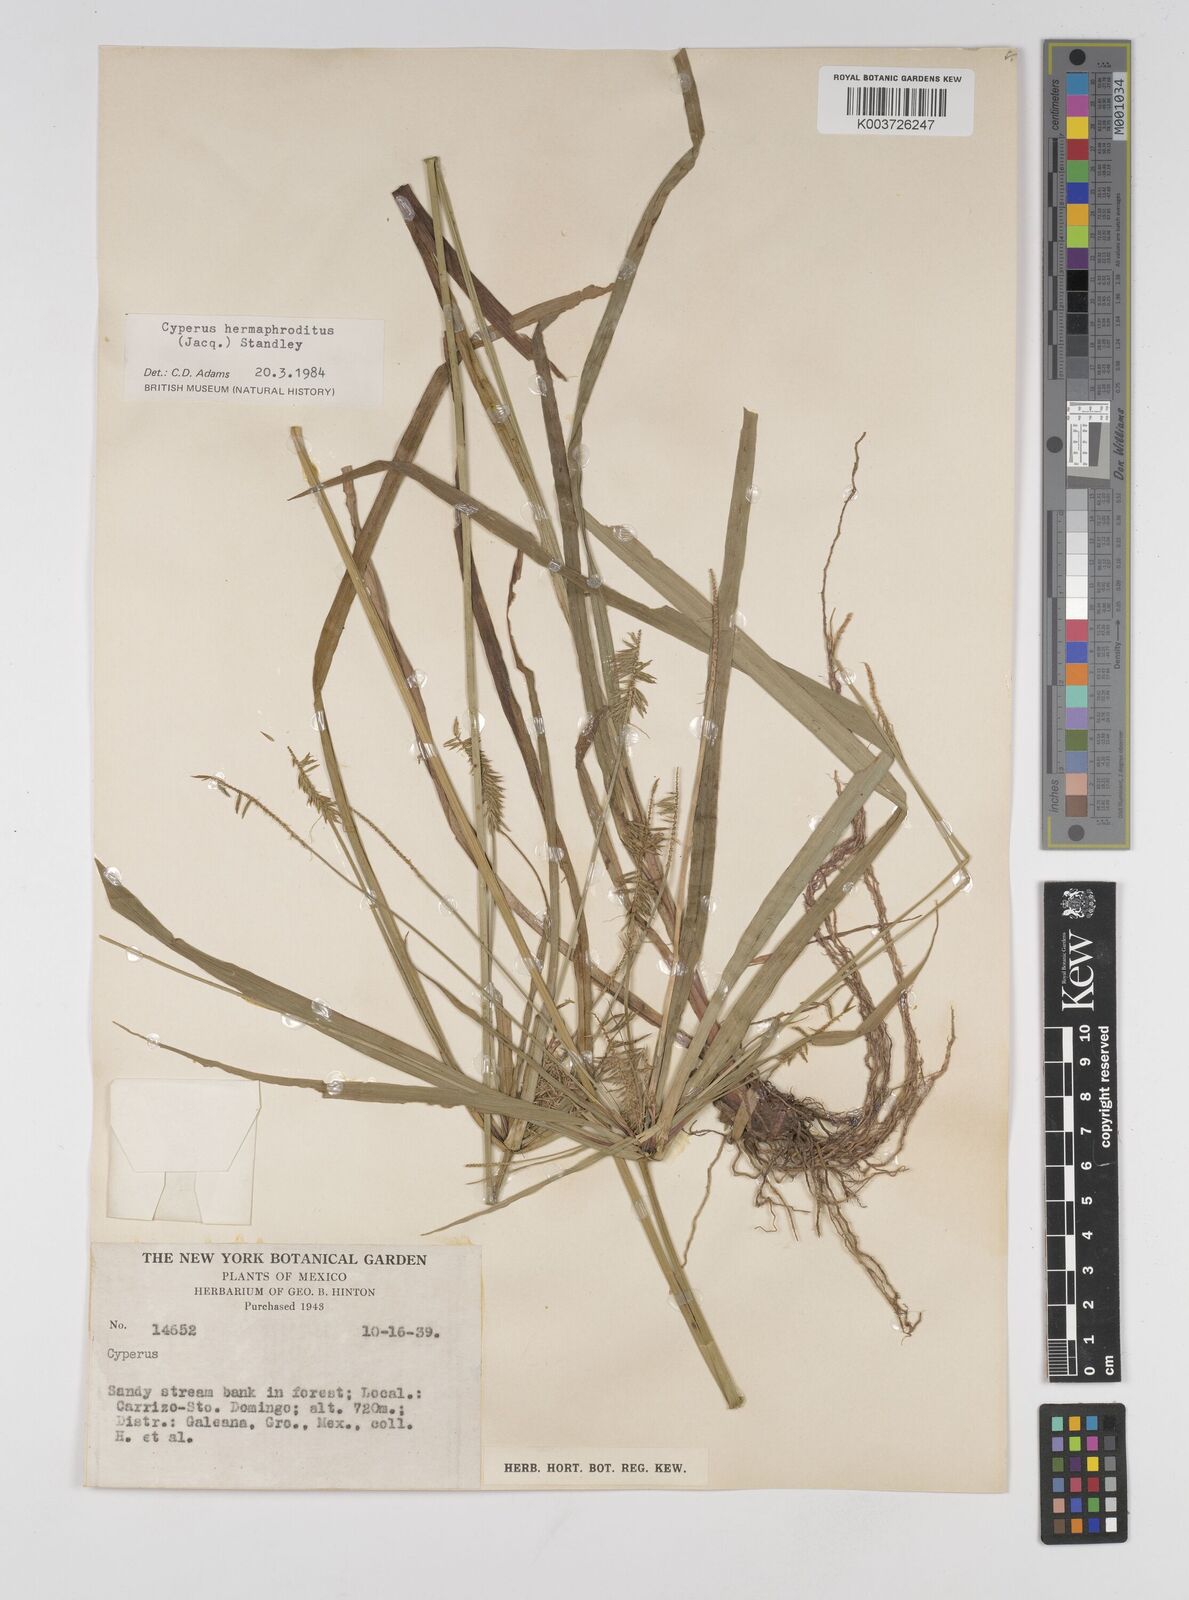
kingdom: Plantae
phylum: Tracheophyta
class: Liliopsida
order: Poales
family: Cyperaceae
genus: Cyperus
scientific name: Cyperus hermaphroditus
